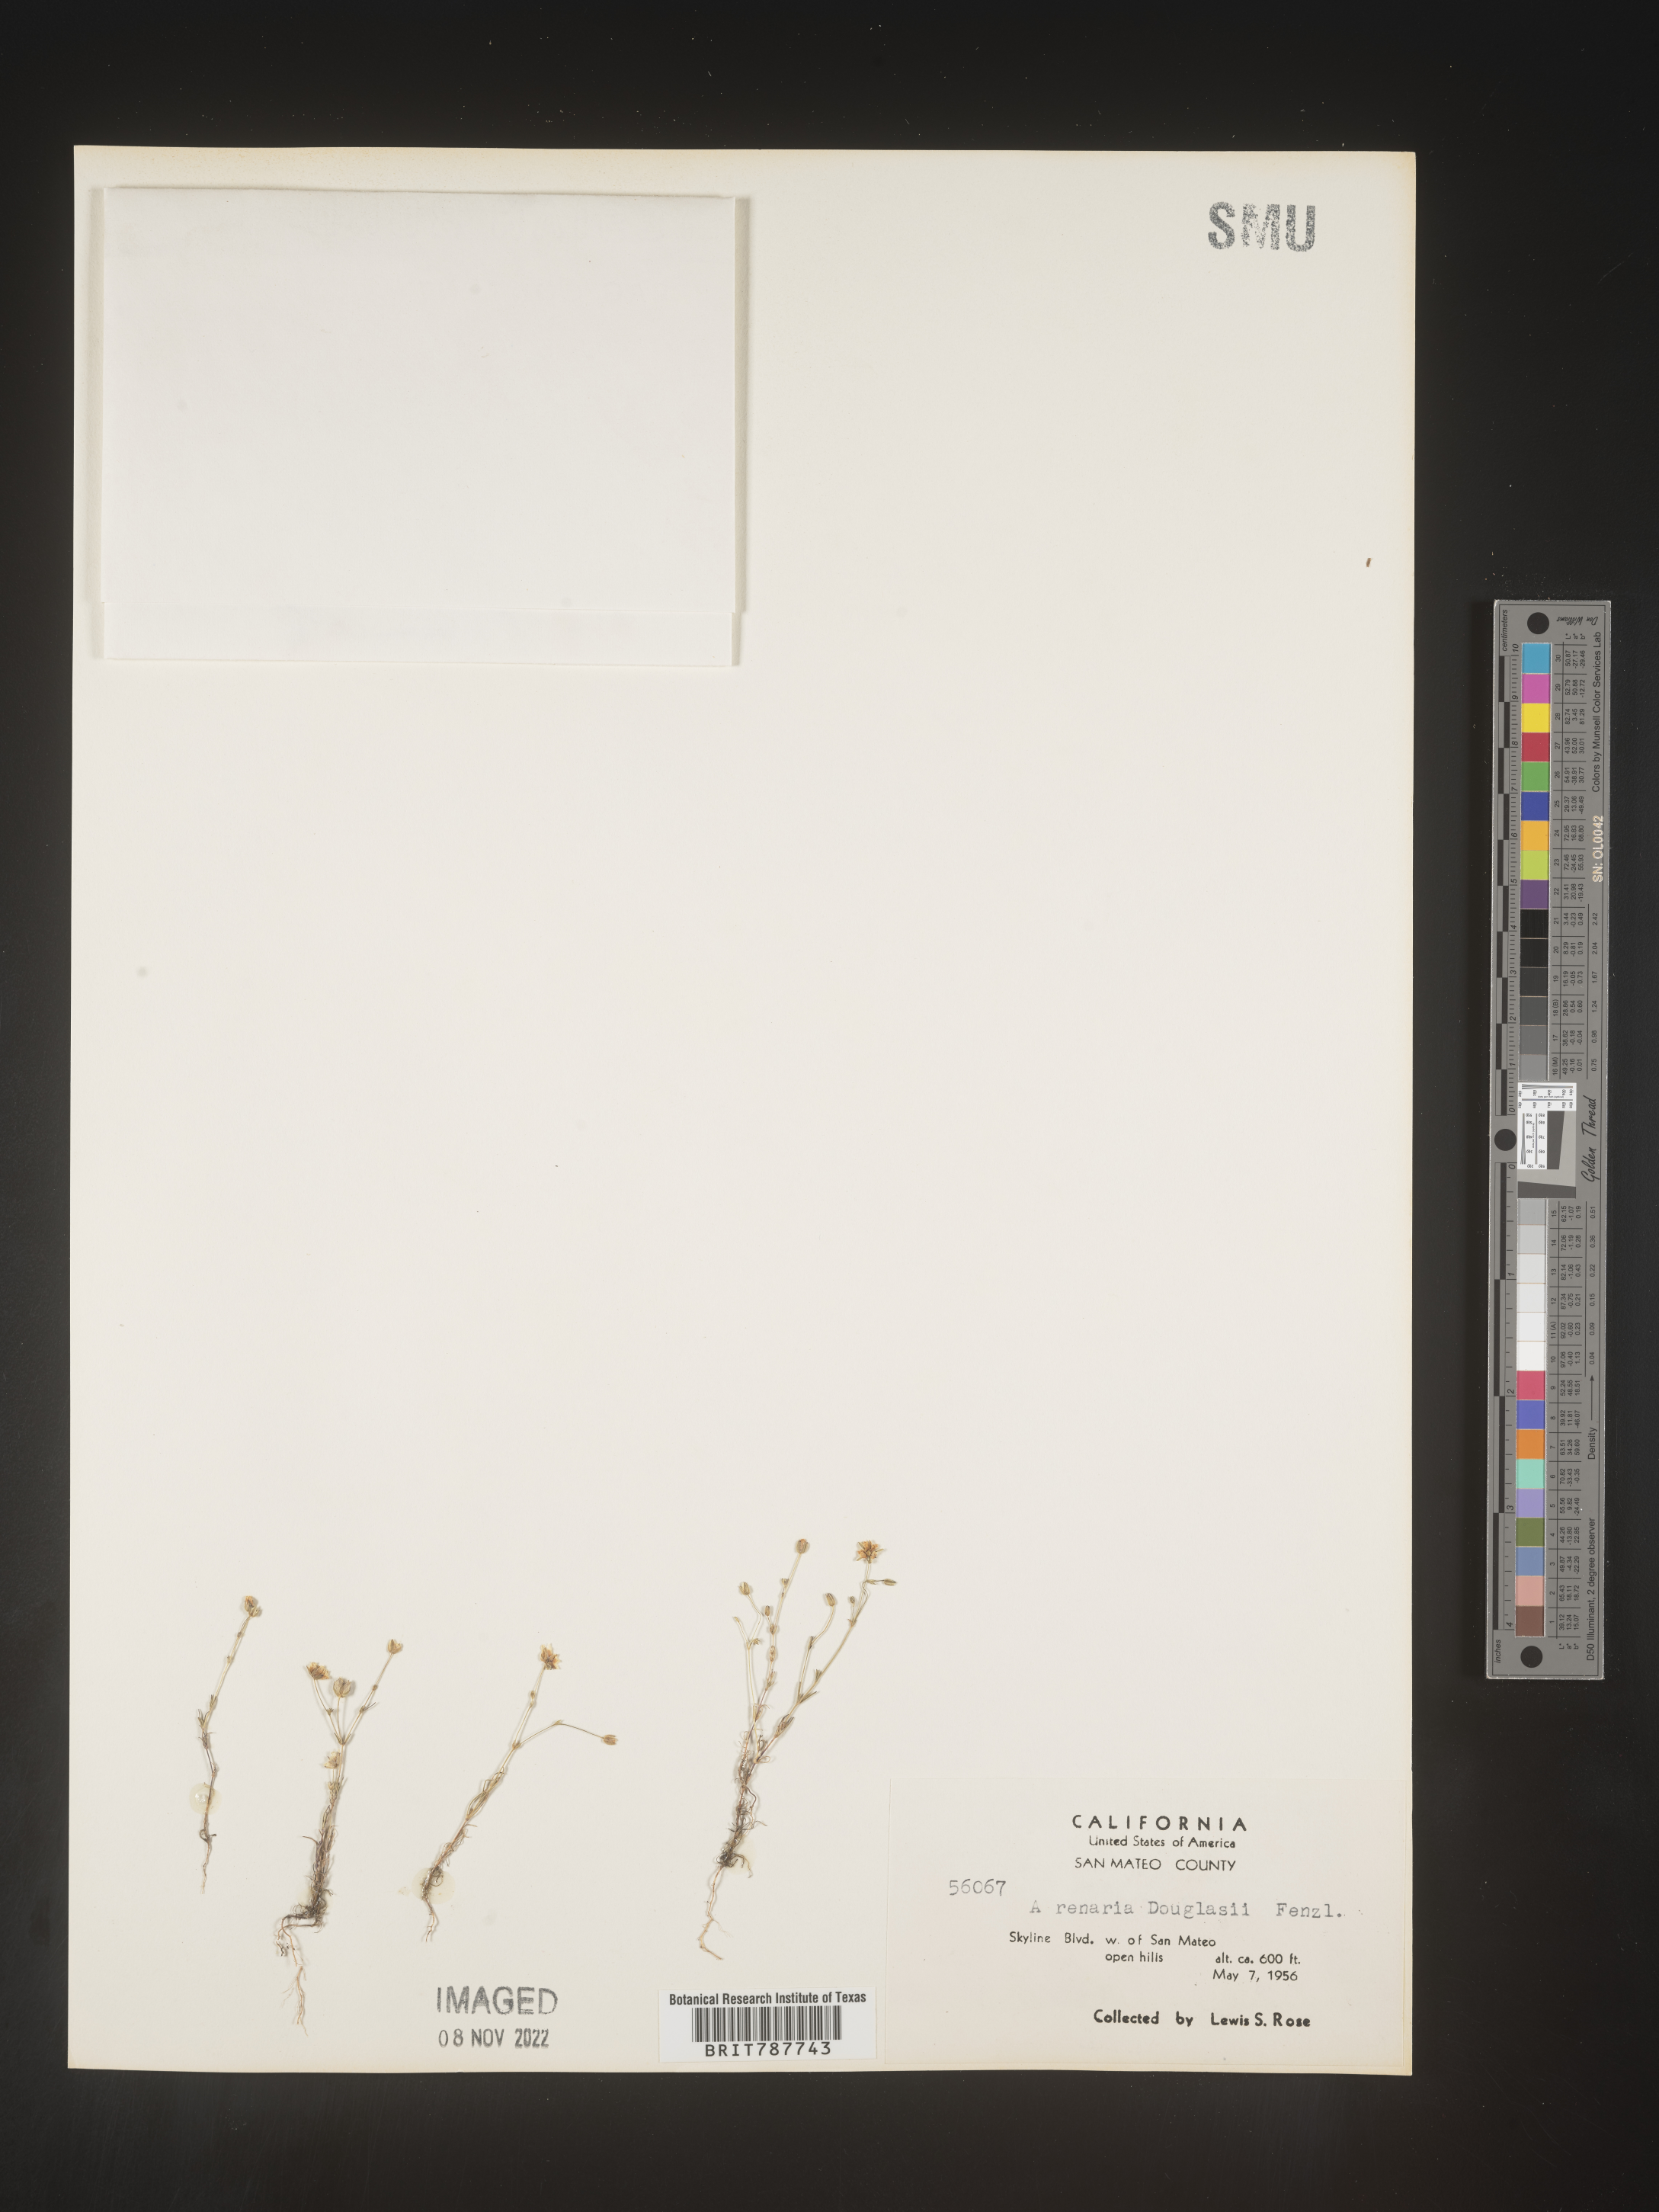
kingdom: Plantae
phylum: Tracheophyta
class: Magnoliopsida
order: Caryophyllales
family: Caryophyllaceae
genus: Arenaria
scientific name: Arenaria
